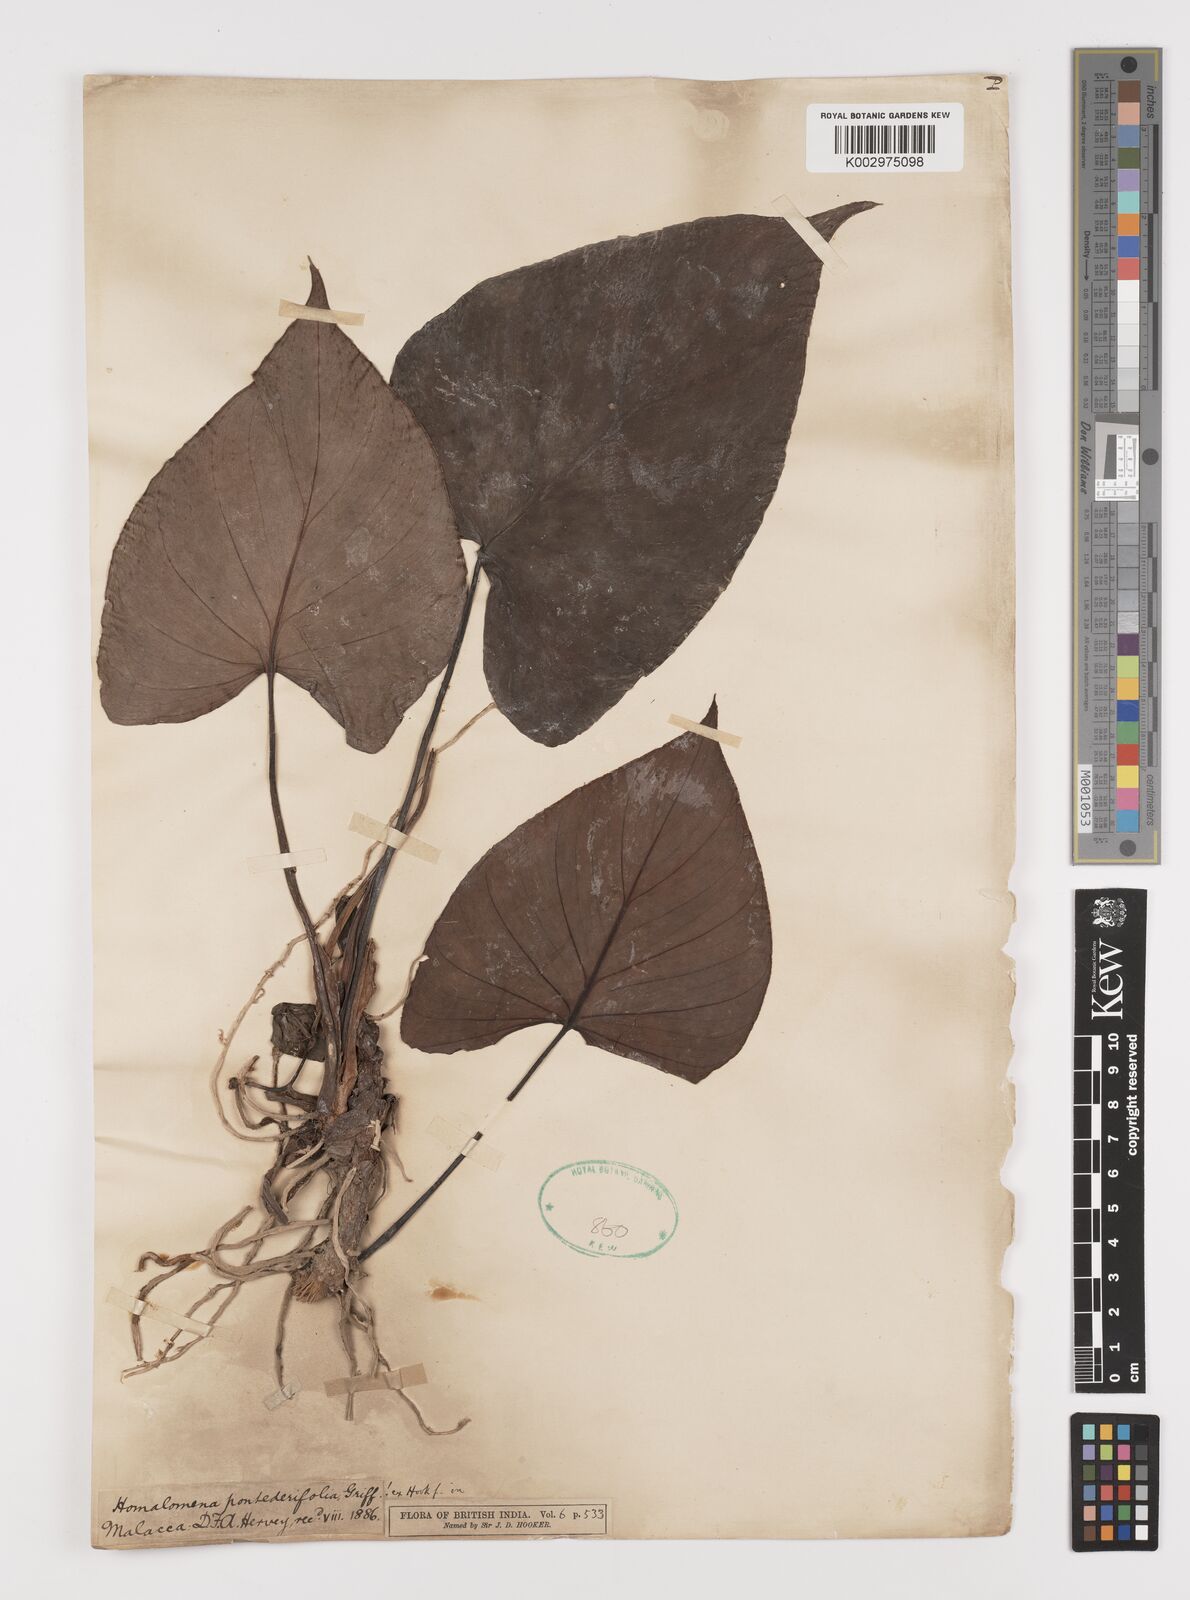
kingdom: Plantae
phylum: Tracheophyta
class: Liliopsida
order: Alismatales
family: Araceae
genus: Homalomena
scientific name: Homalomena pendula
